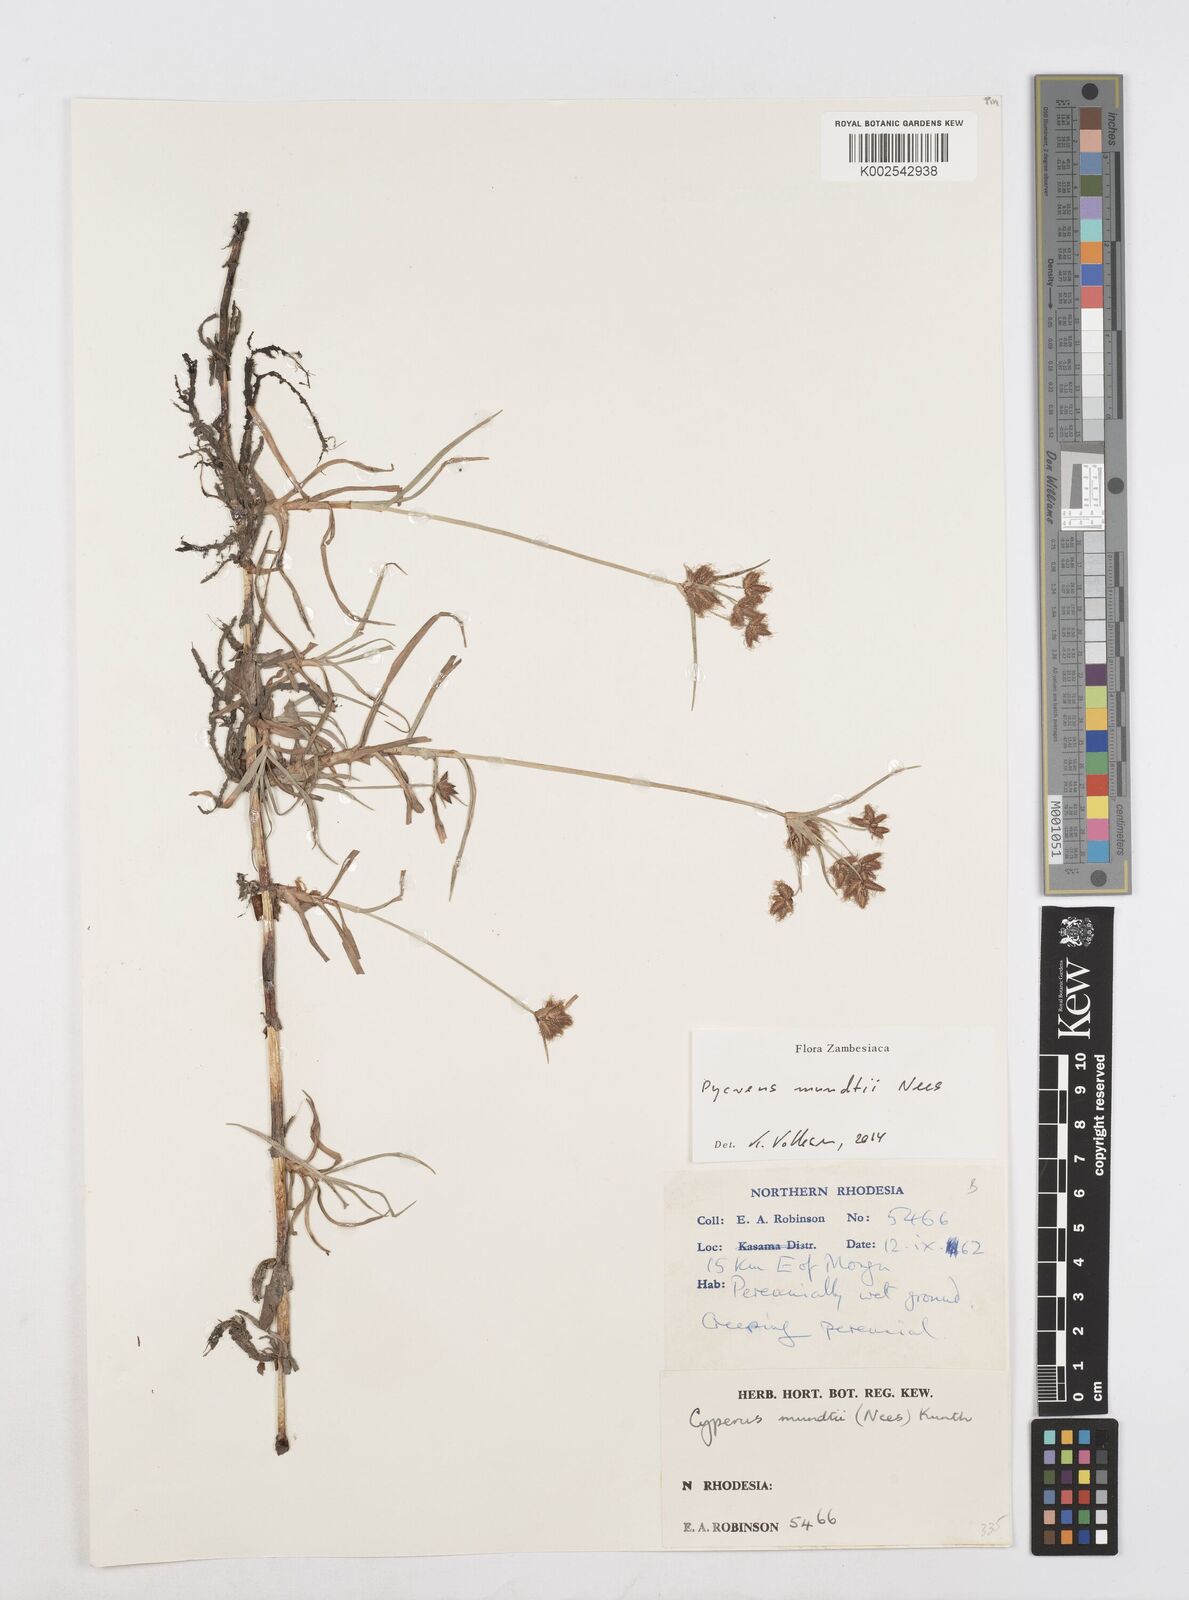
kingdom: Plantae
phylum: Tracheophyta
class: Liliopsida
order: Poales
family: Cyperaceae
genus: Cyperus
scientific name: Cyperus mundii
